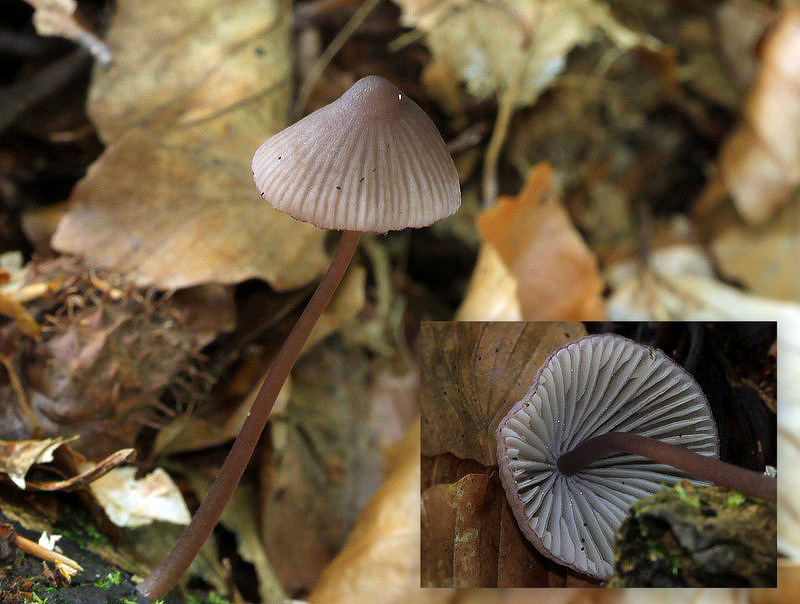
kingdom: Fungi
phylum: Basidiomycota
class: Agaricomycetes
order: Agaricales
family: Mycenaceae
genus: Mycena
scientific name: Mycena purpureofusca
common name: purpur-huesvamp
